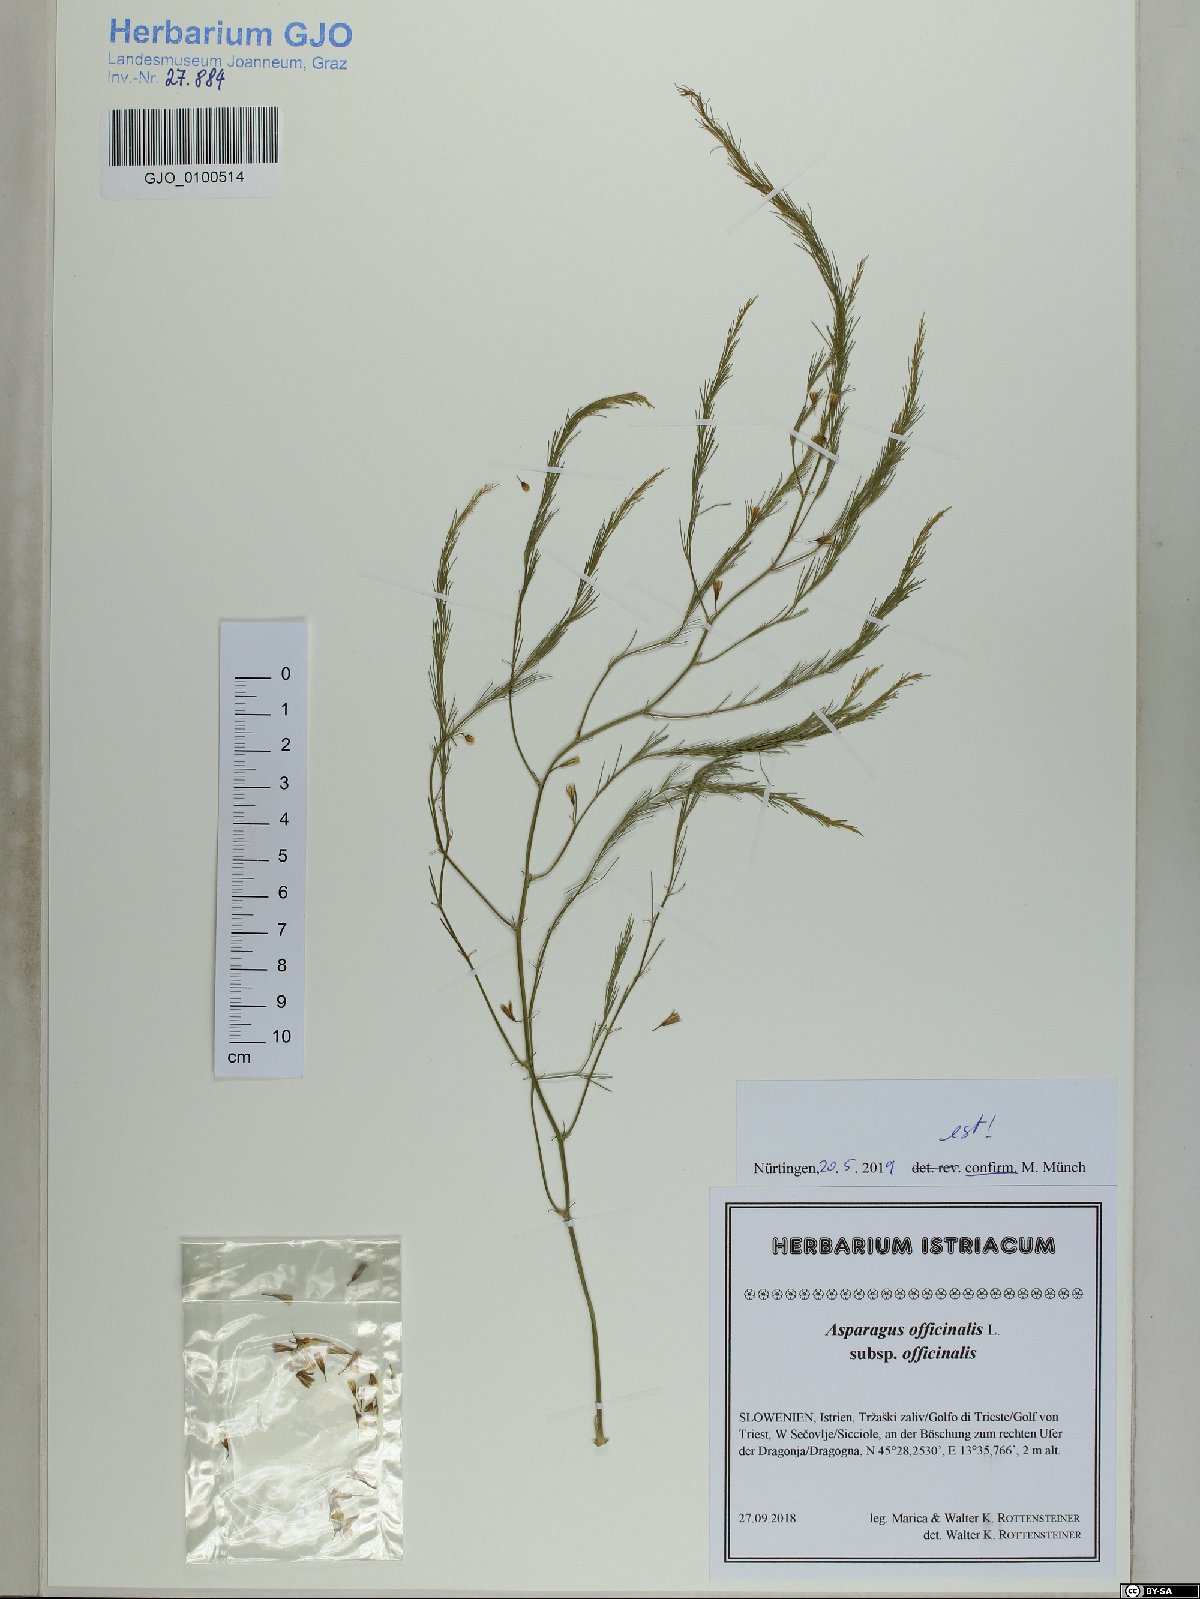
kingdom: Plantae
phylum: Tracheophyta
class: Liliopsida
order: Asparagales
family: Asparagaceae
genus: Asparagus
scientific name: Asparagus officinalis
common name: Garden asparagus
